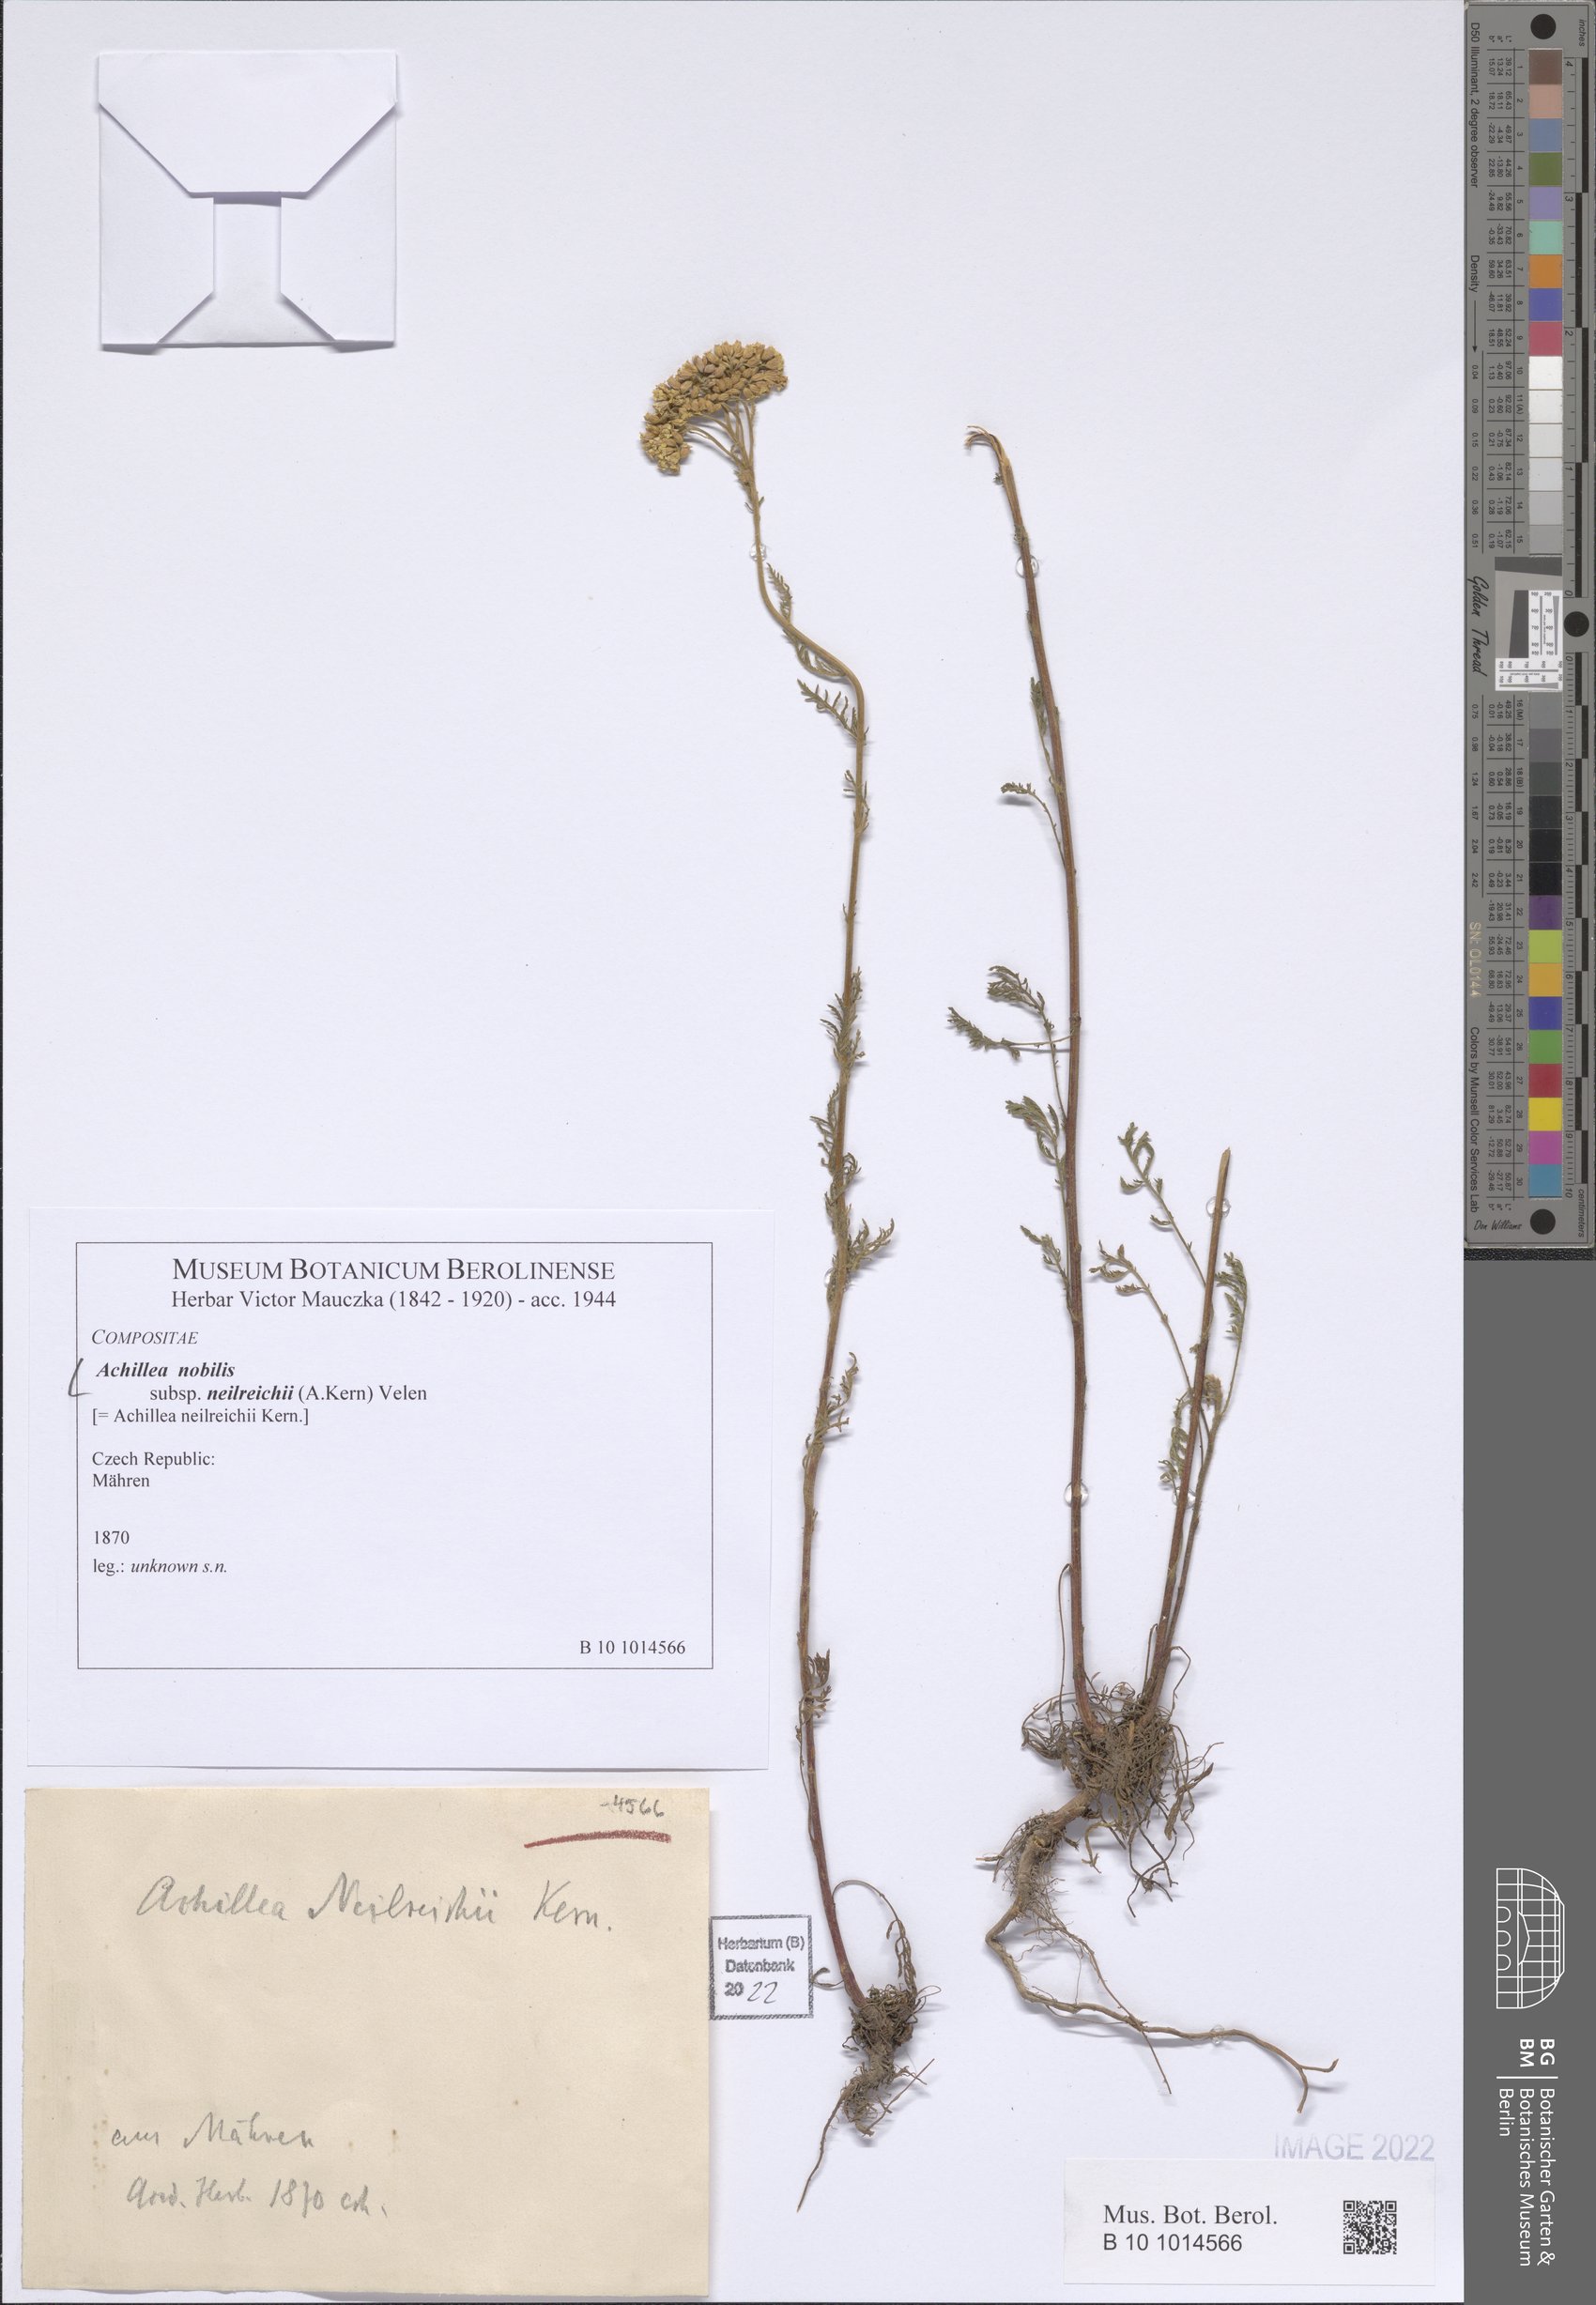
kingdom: Plantae
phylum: Tracheophyta
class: Magnoliopsida
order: Asterales
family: Asteraceae
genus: Achillea
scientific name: Achillea nobilis
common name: Noble yarrow
